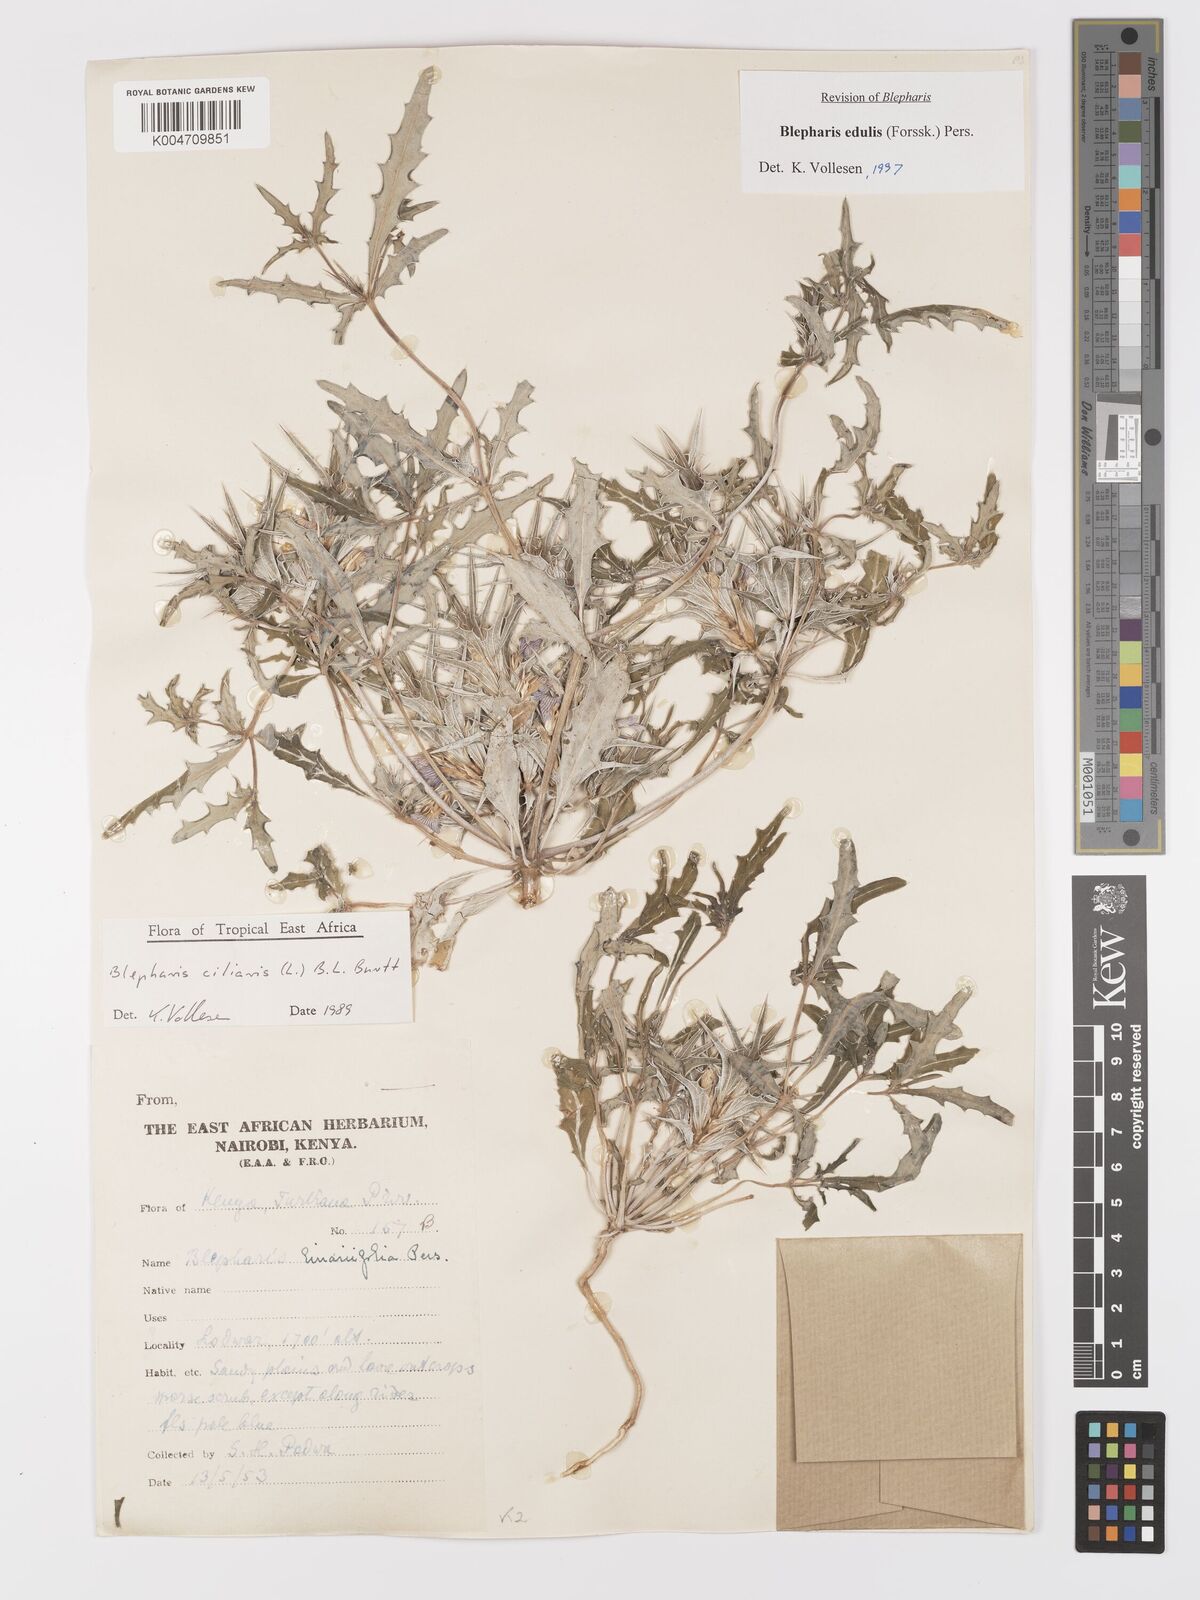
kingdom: Plantae
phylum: Tracheophyta
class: Magnoliopsida
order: Lamiales
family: Acanthaceae
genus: Blepharis
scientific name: Blepharis edulis
